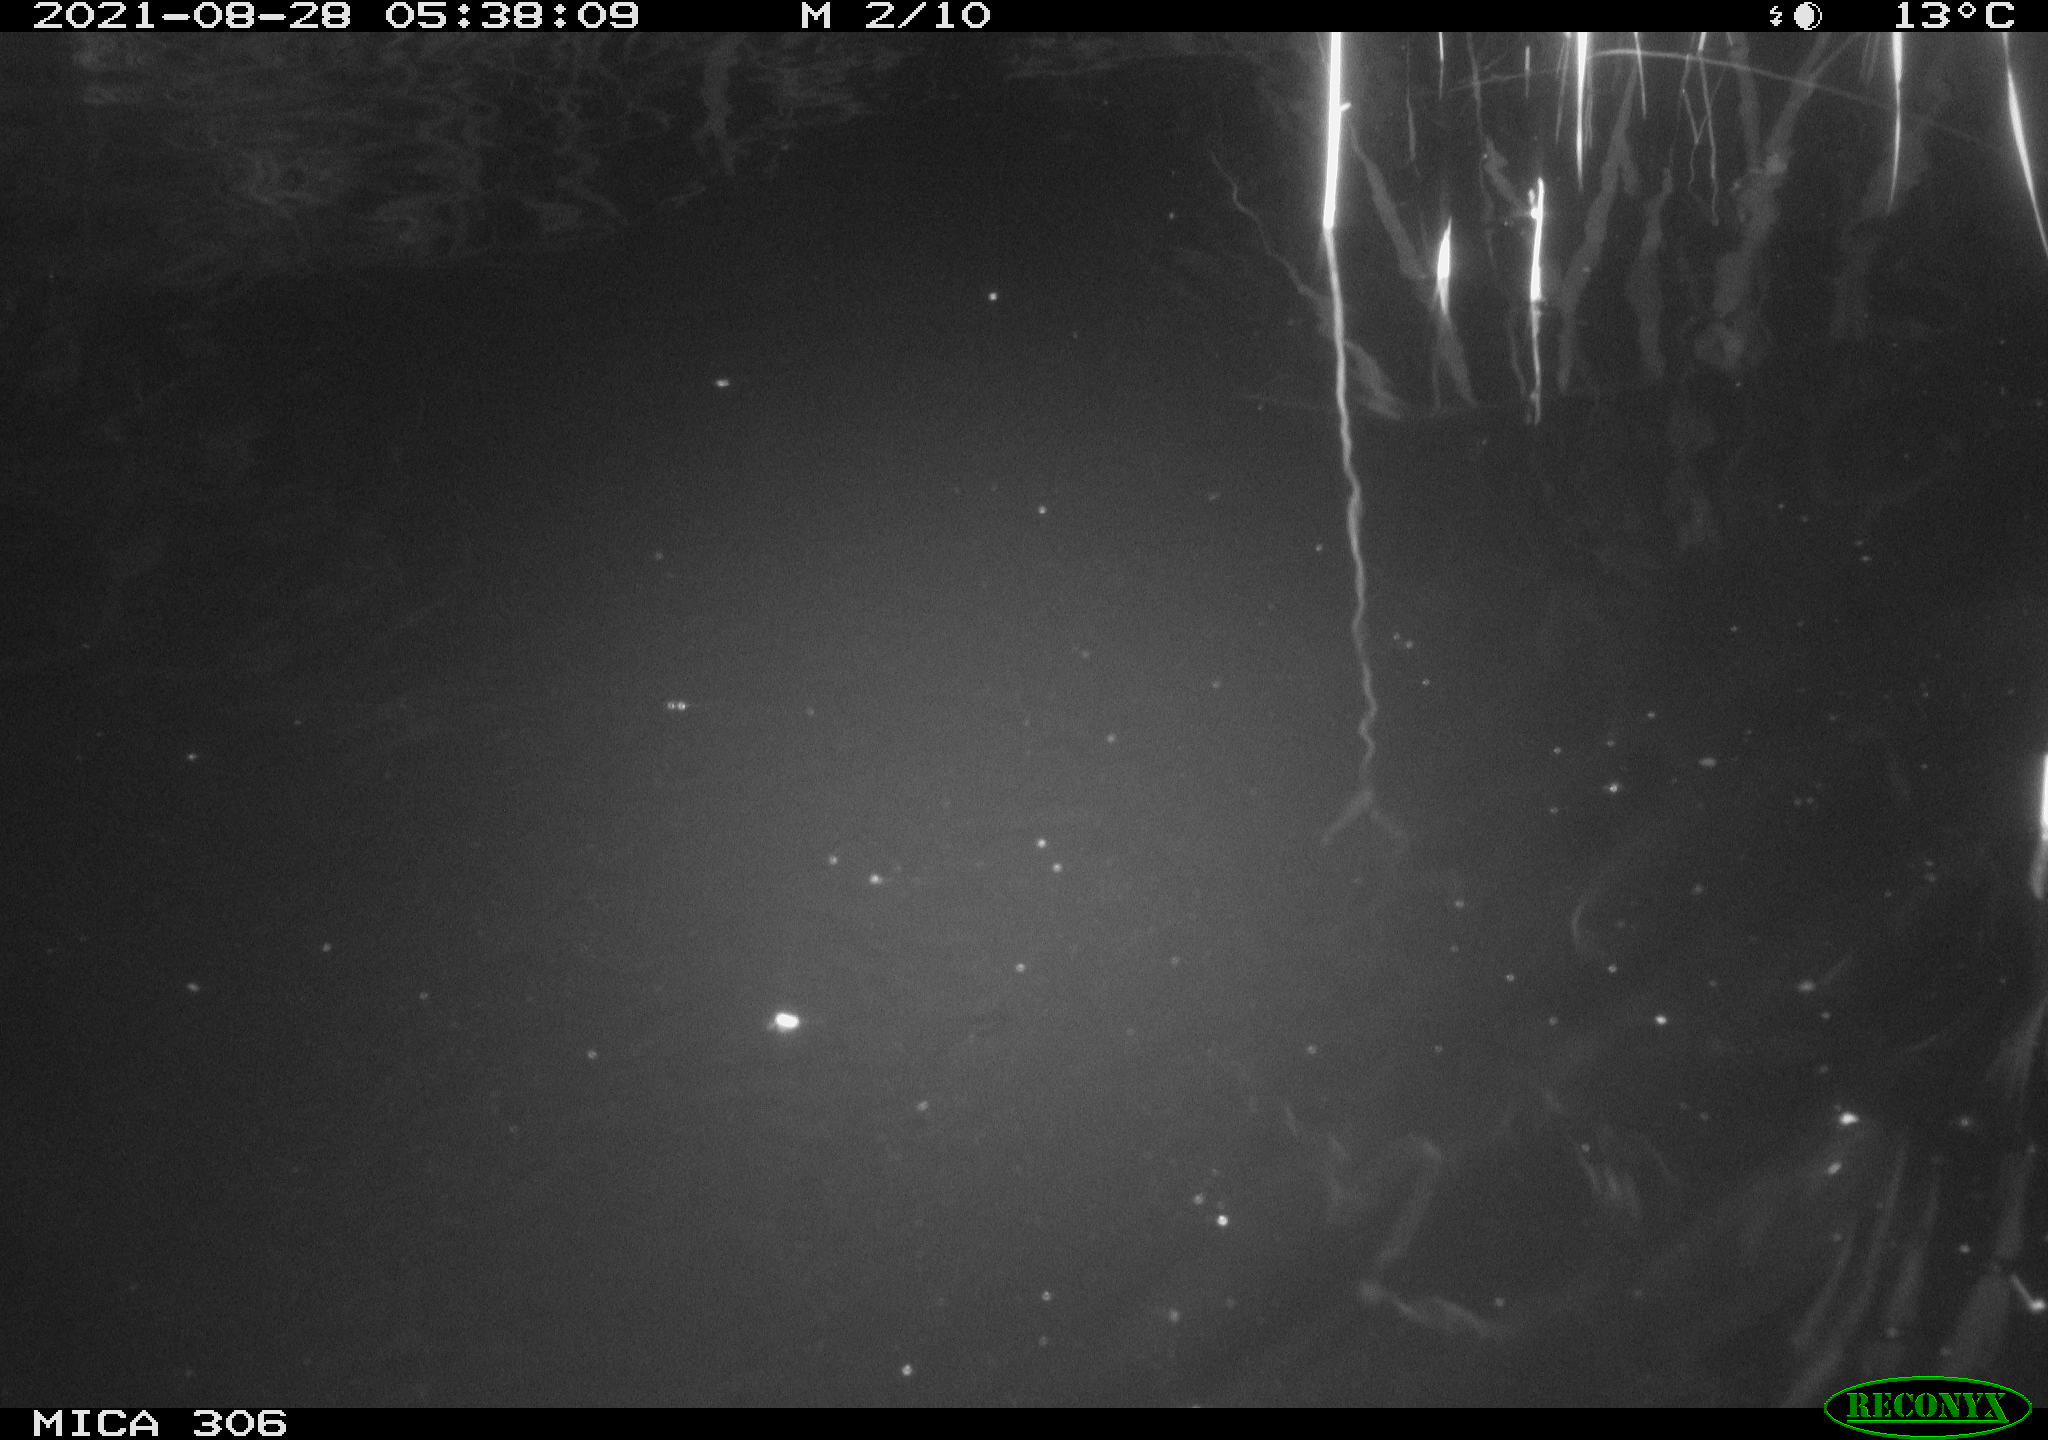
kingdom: Animalia
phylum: Chordata
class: Aves
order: Anseriformes
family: Anatidae
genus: Anas
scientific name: Anas platyrhynchos
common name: Mallard
